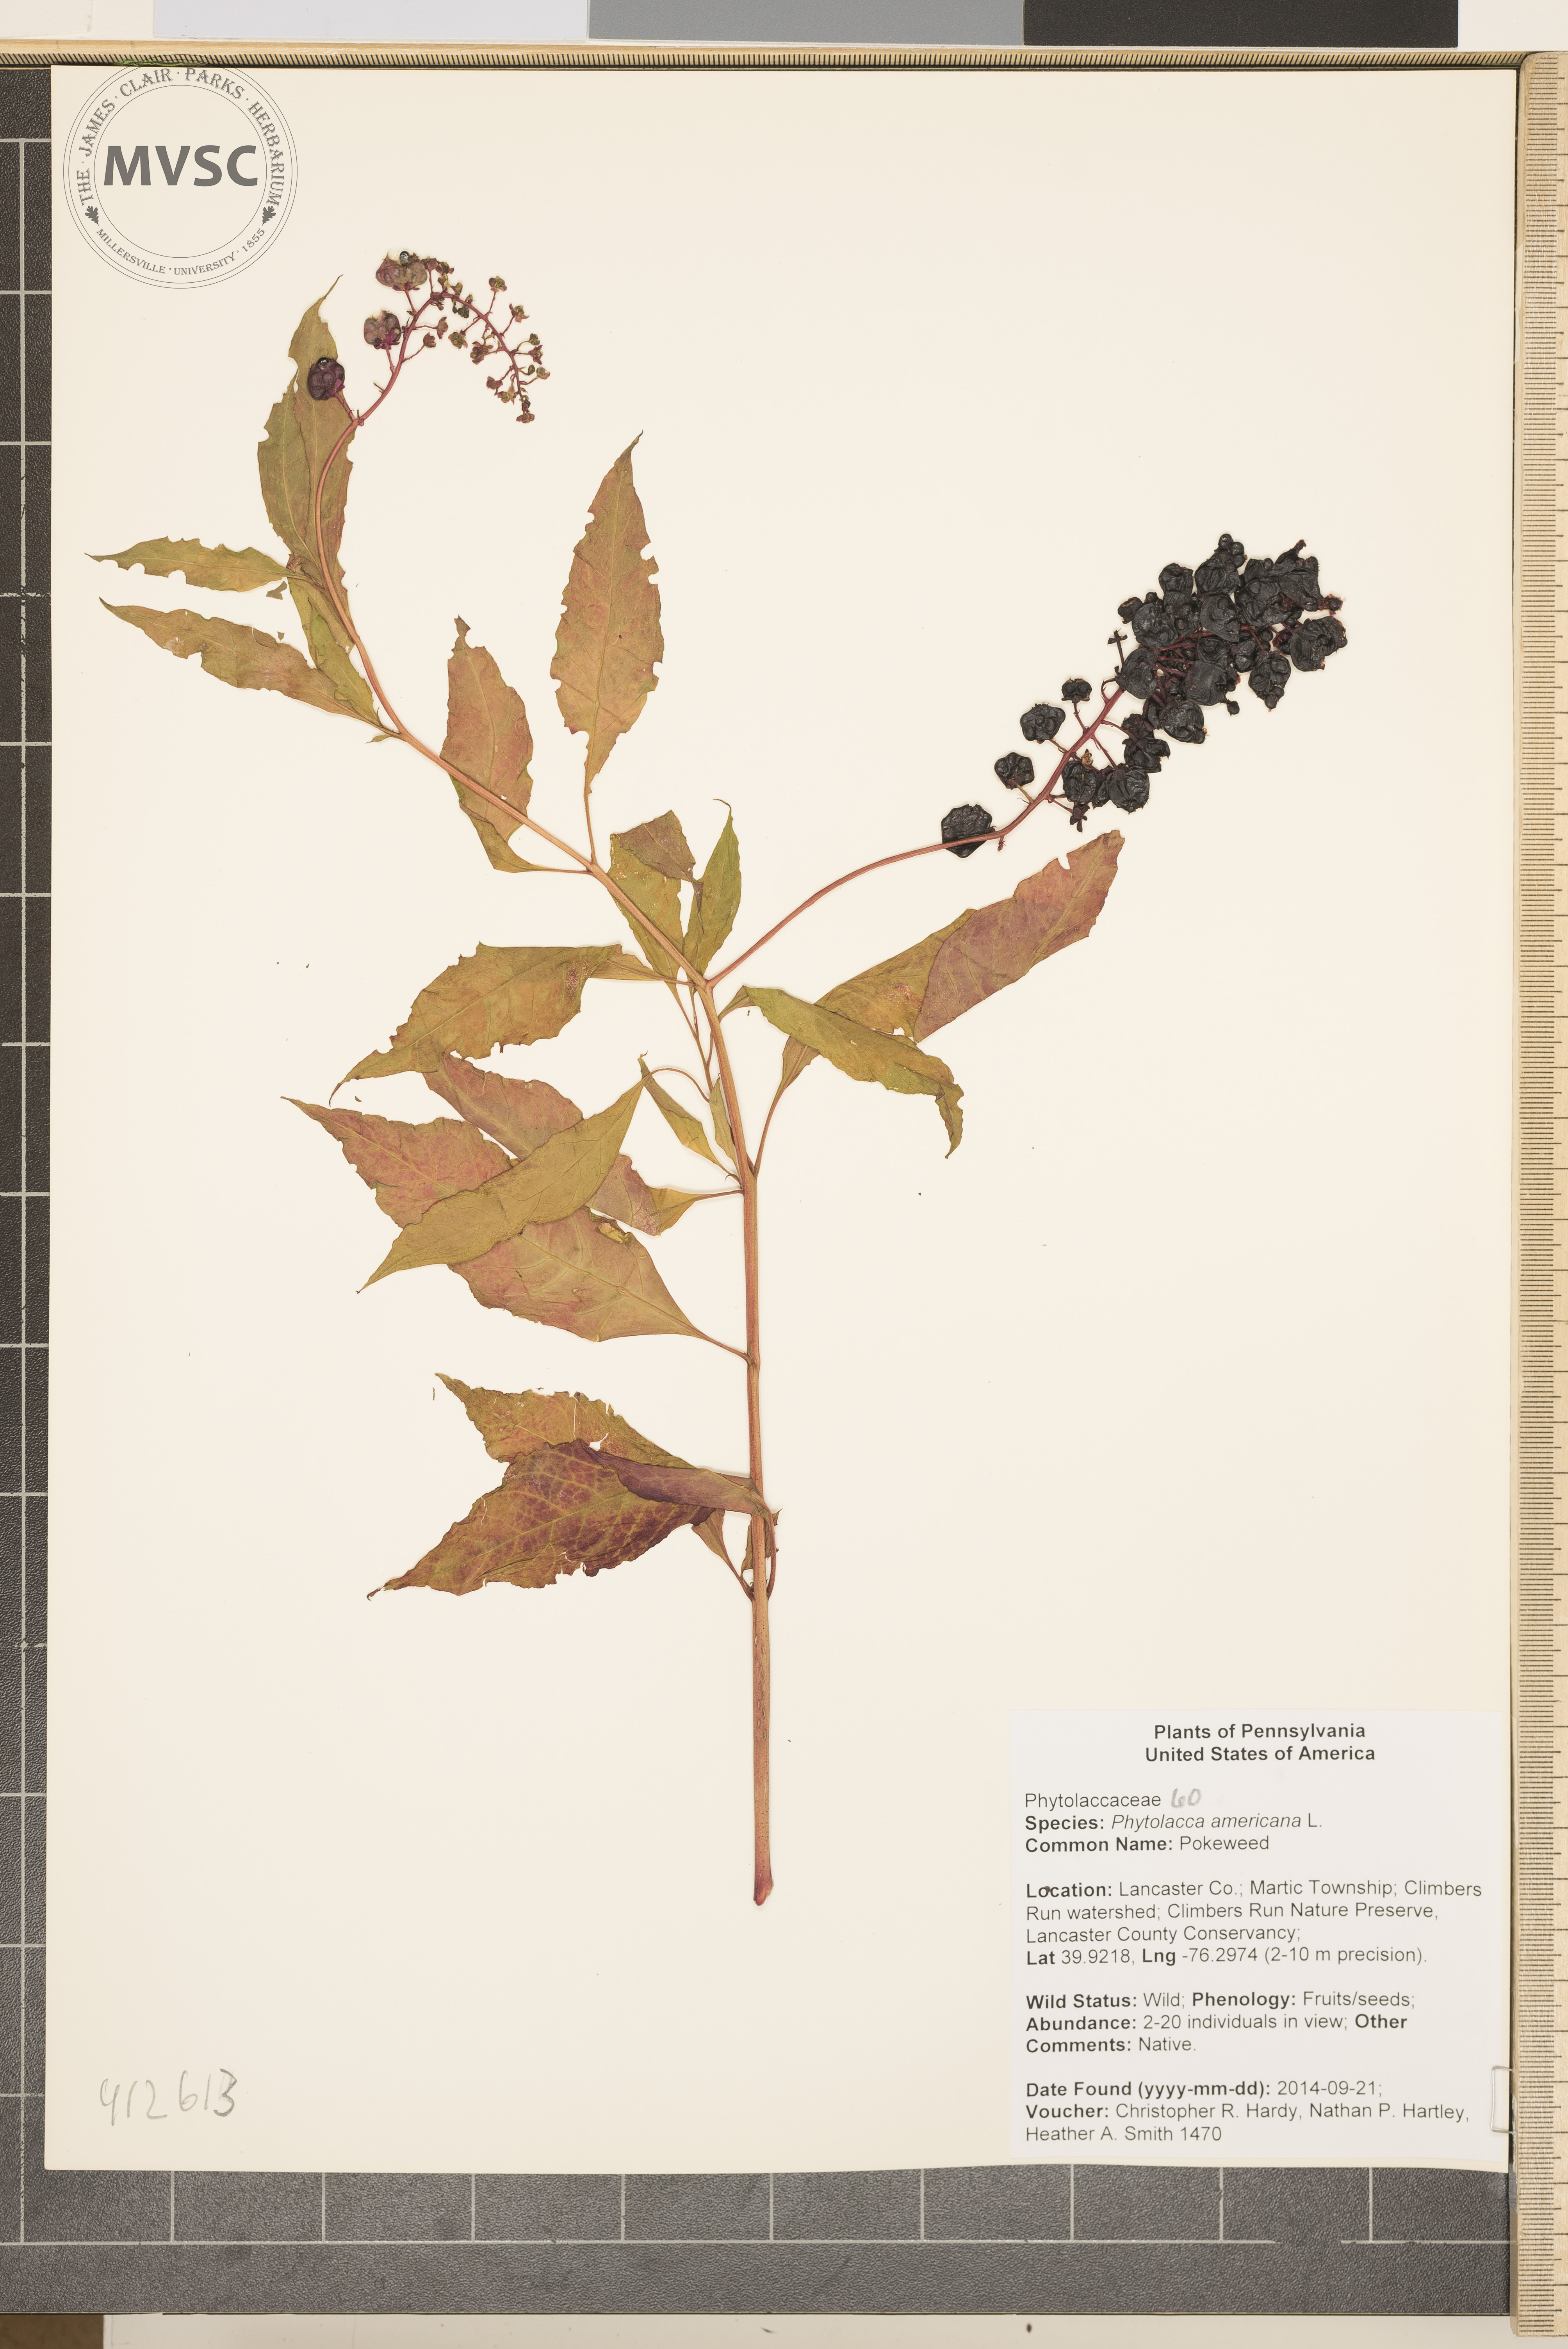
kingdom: Plantae
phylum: Tracheophyta
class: Magnoliopsida
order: Caryophyllales
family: Phytolaccaceae
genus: Phytolacca
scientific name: Phytolacca americana
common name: American pokeweed
